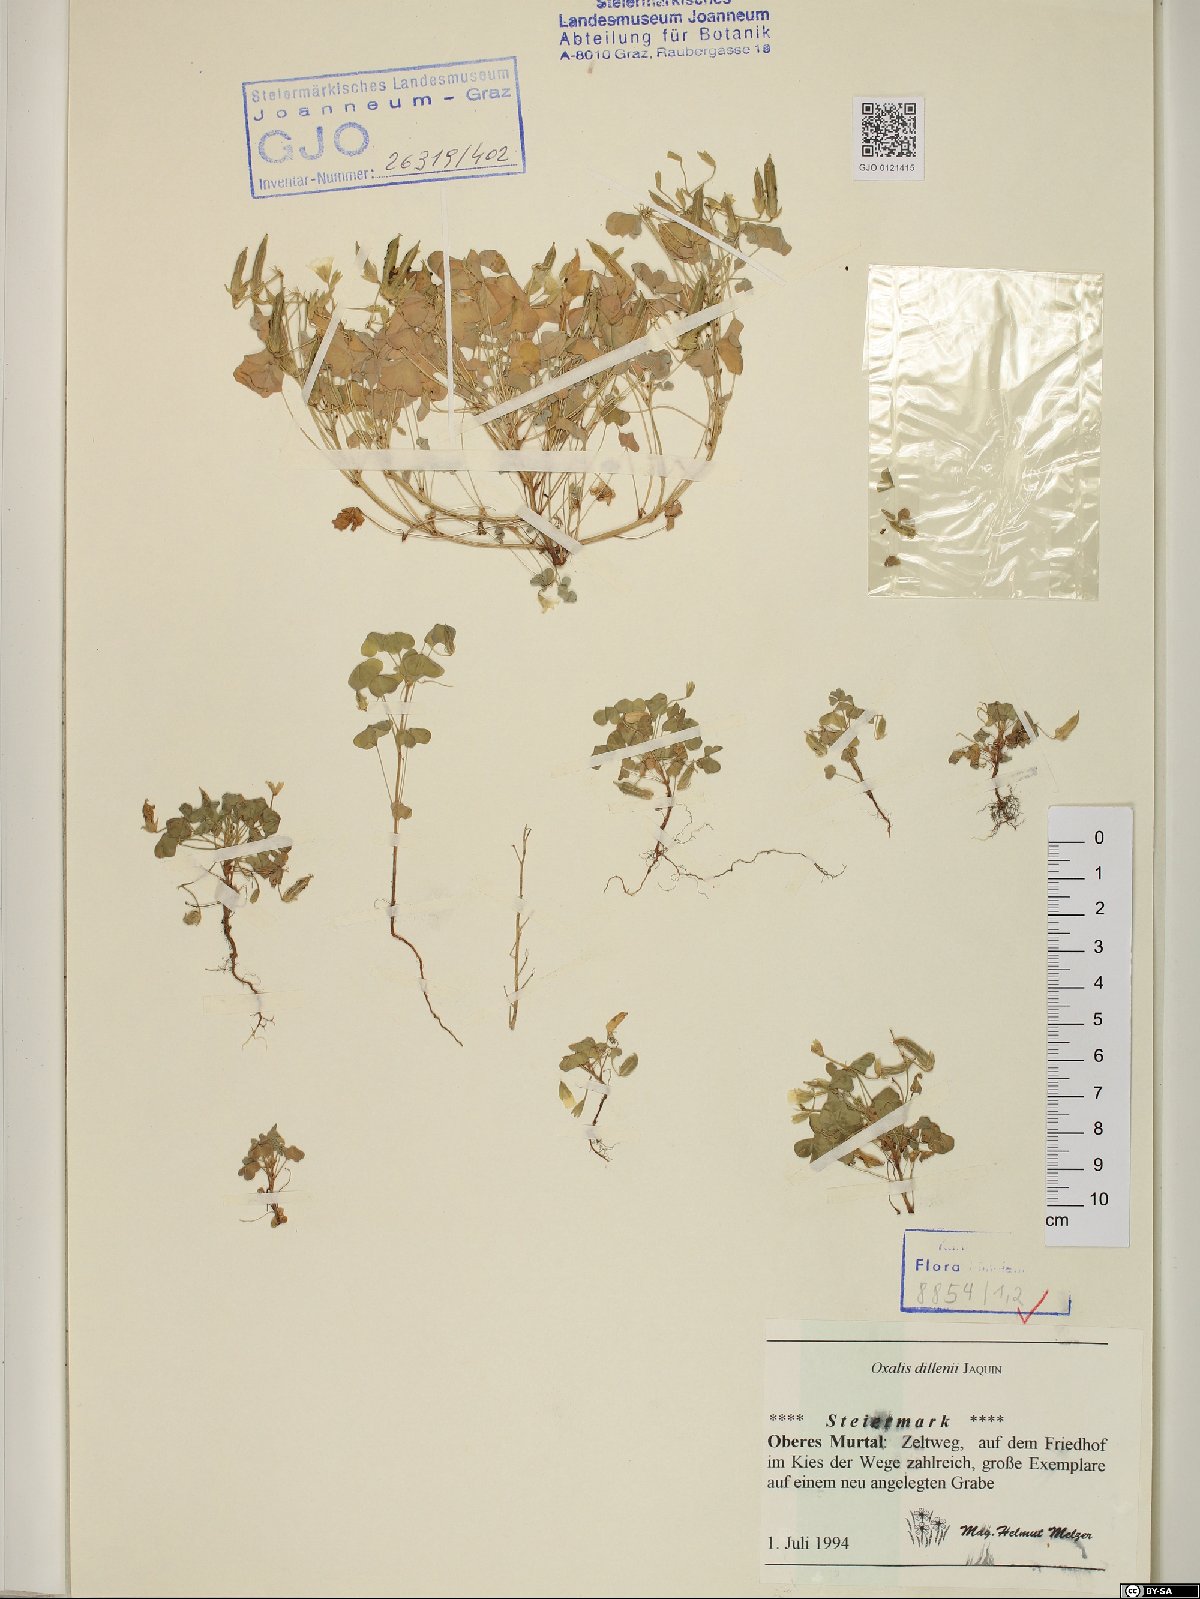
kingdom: Plantae
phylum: Tracheophyta
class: Magnoliopsida
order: Oxalidales
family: Oxalidaceae
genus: Oxalis
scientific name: Oxalis dillenii
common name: Sussex yellow-sorrel
